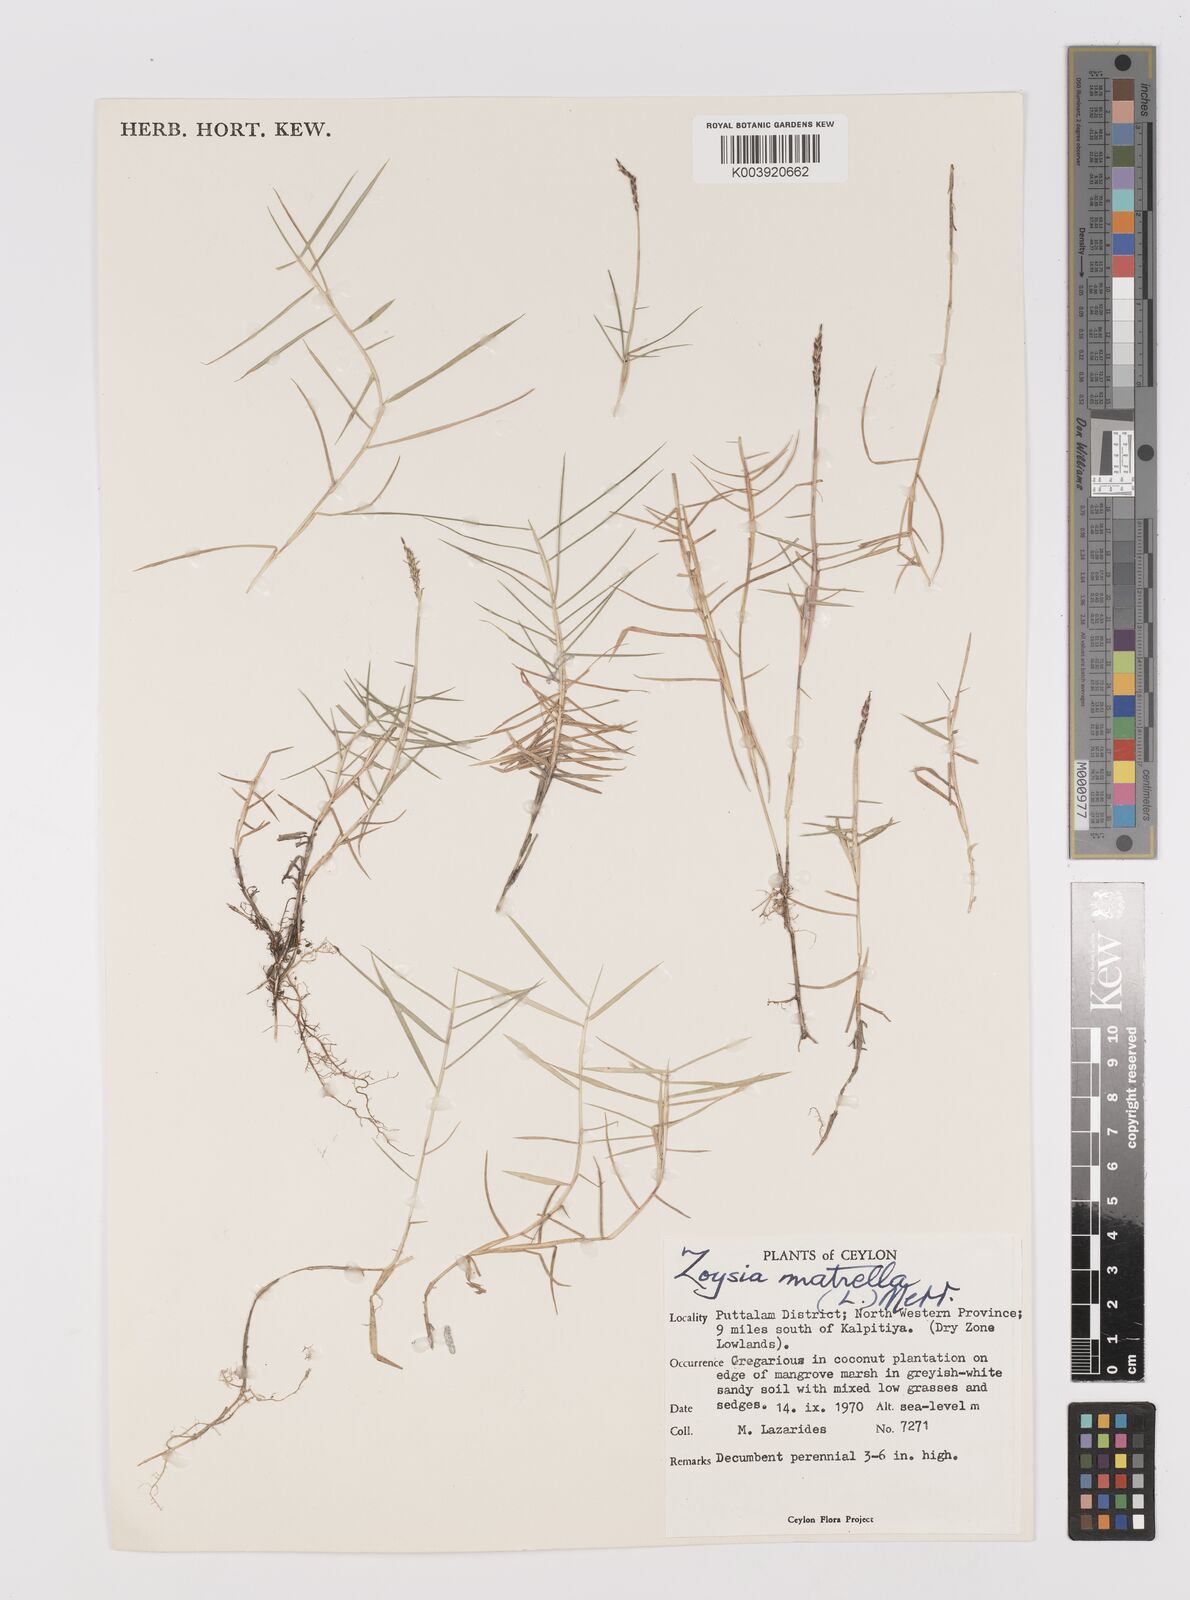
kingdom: Plantae
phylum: Tracheophyta
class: Liliopsida
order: Poales
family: Poaceae
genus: Zoysia
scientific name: Zoysia matrella
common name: Manila grass
